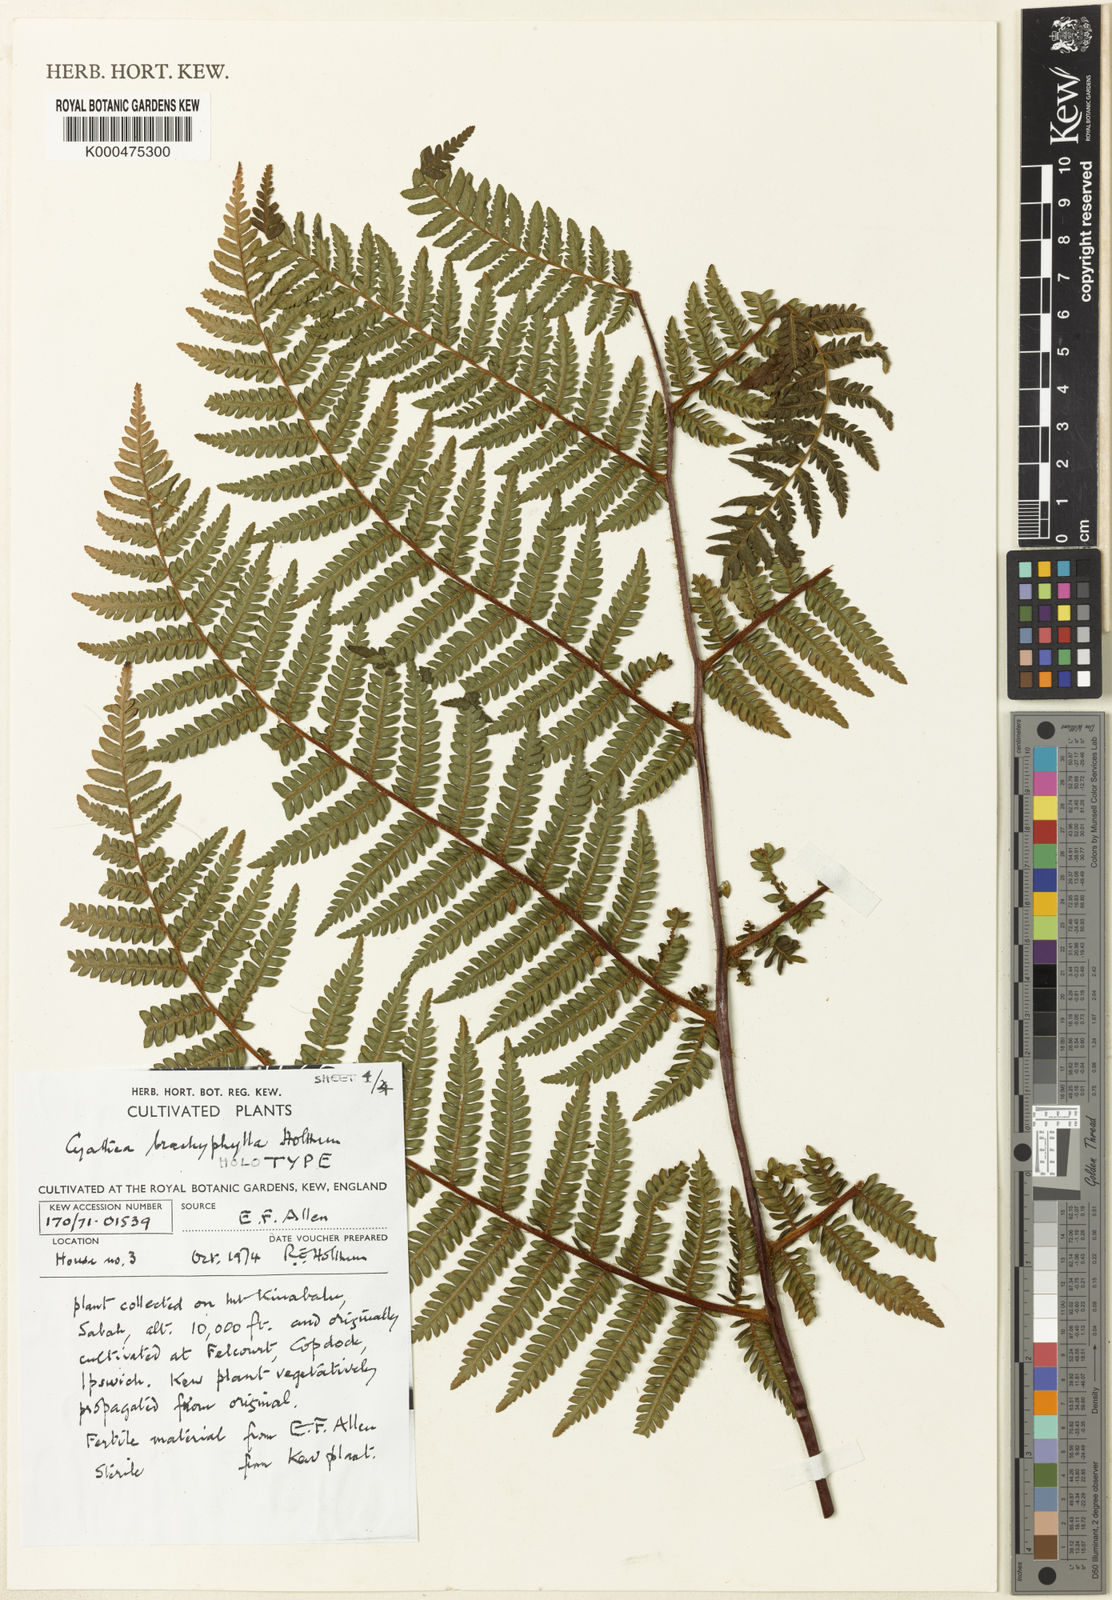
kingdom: Plantae
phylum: Tracheophyta
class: Polypodiopsida
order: Cyatheales
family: Cyatheaceae
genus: Alsophila
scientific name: Alsophila brachyphylla
